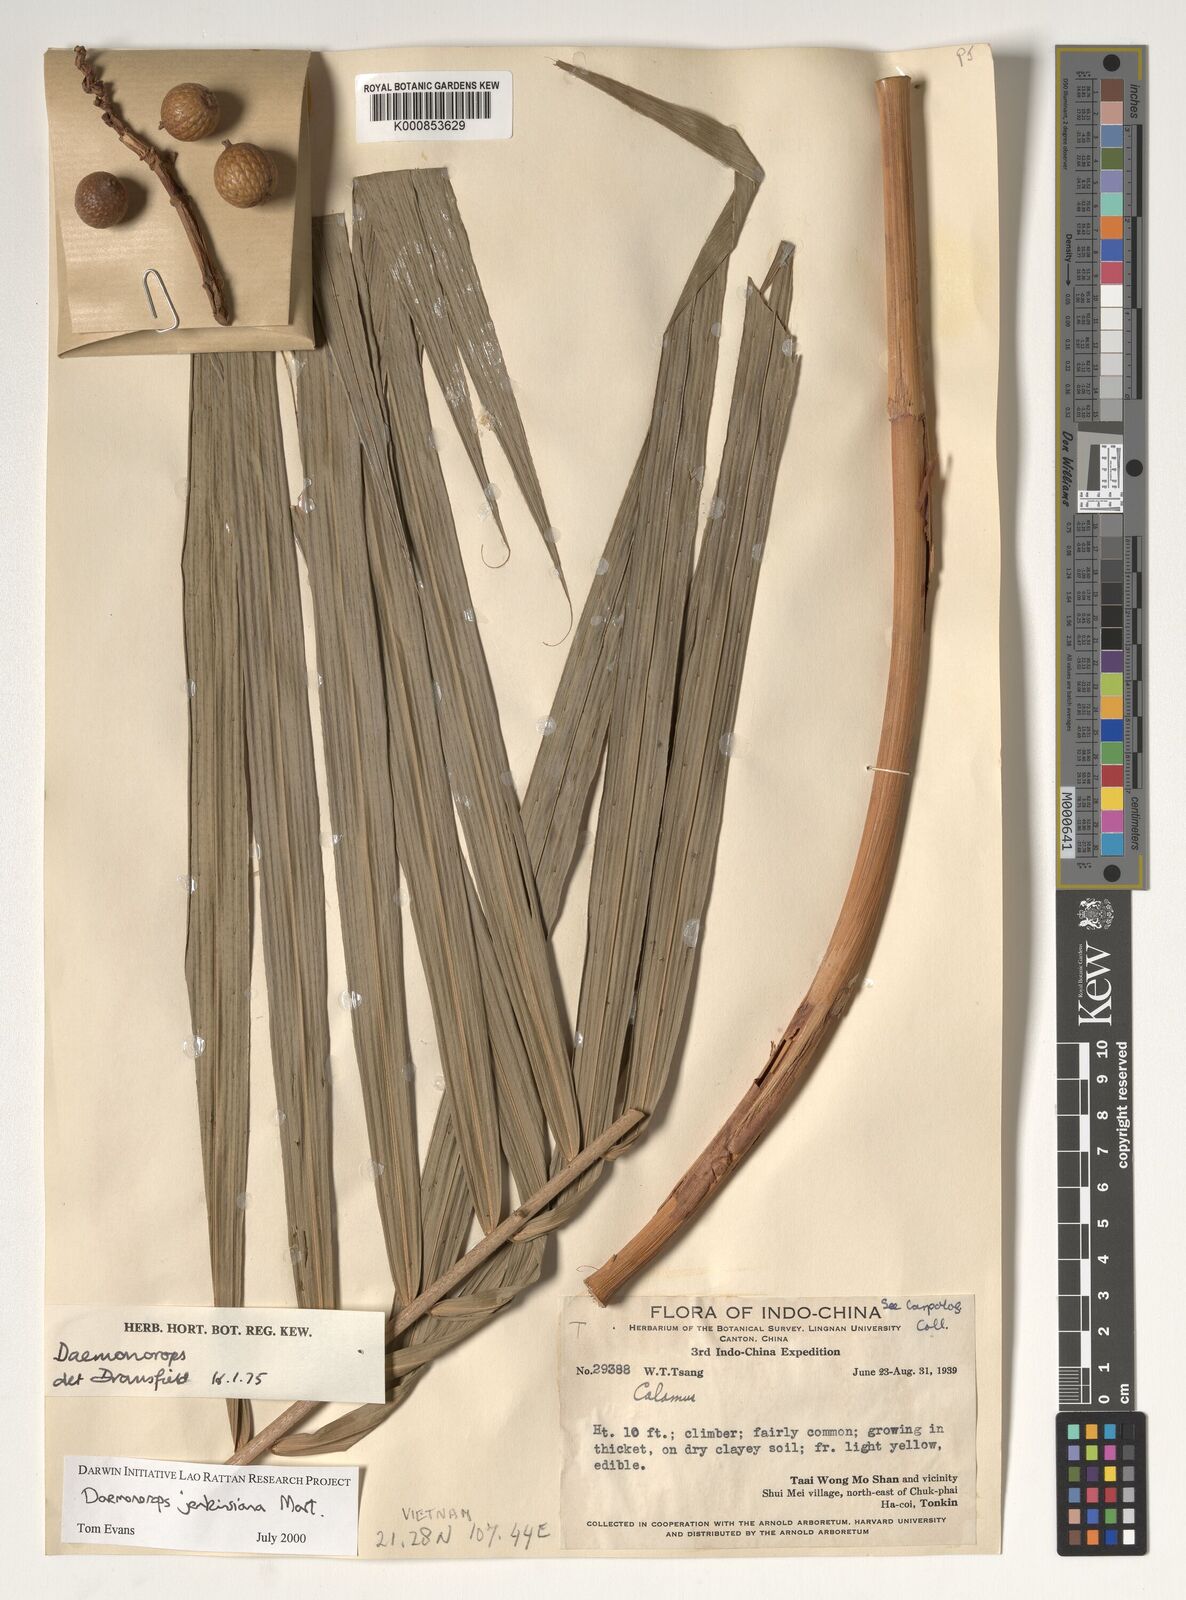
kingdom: Plantae
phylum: Tracheophyta
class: Liliopsida
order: Arecales
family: Arecaceae
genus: Calamus
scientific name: Calamus melanochaetes
